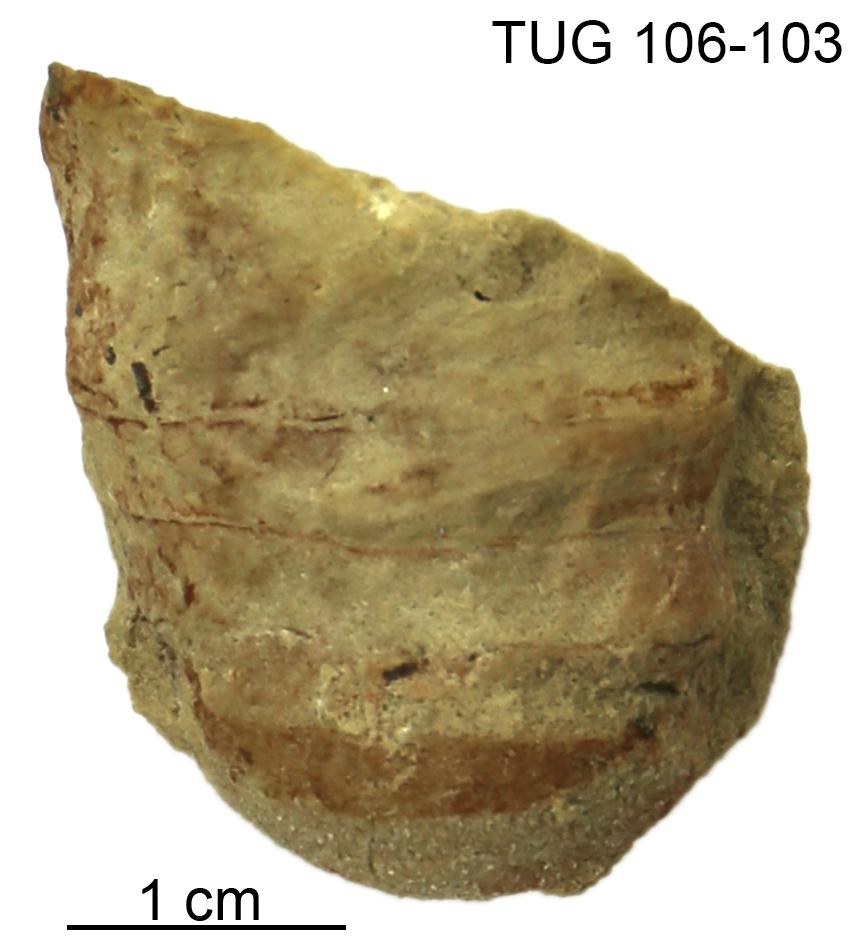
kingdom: Animalia
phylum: Mollusca
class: Cephalopoda
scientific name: Cephalopoda
